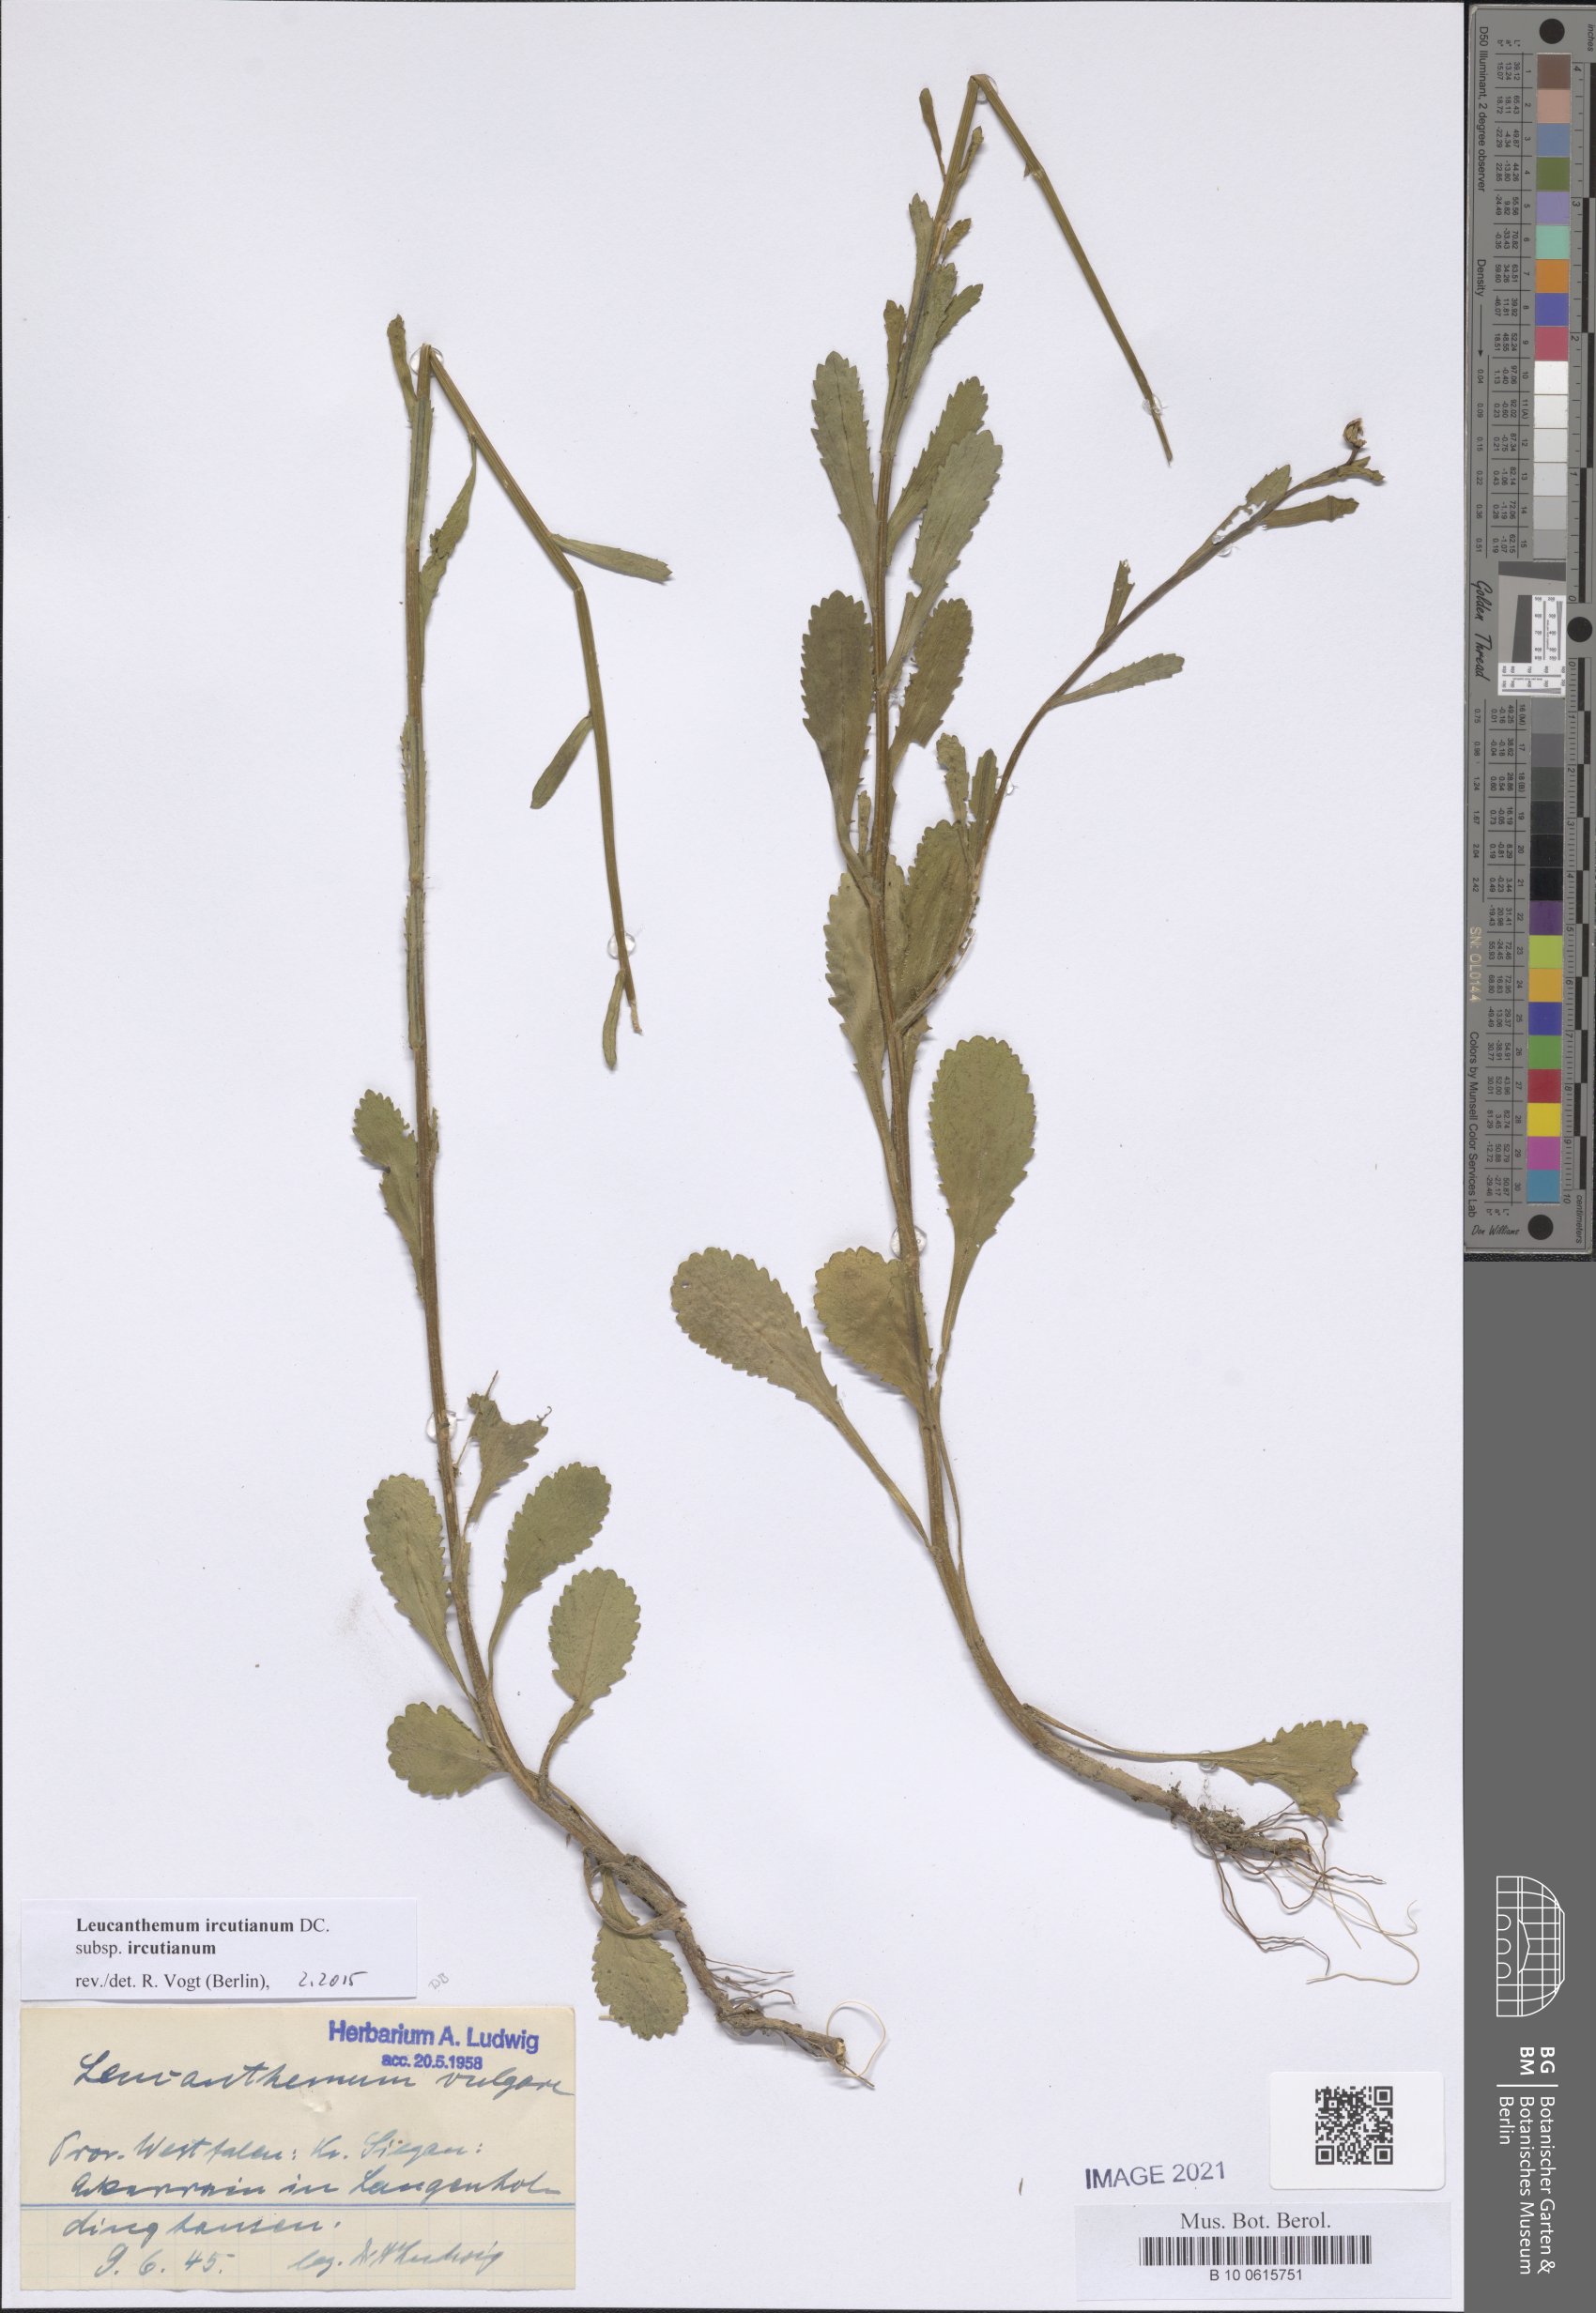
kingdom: Plantae
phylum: Tracheophyta
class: Magnoliopsida
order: Asterales
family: Asteraceae
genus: Leucanthemum
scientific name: Leucanthemum ircutianum
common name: Daisy
